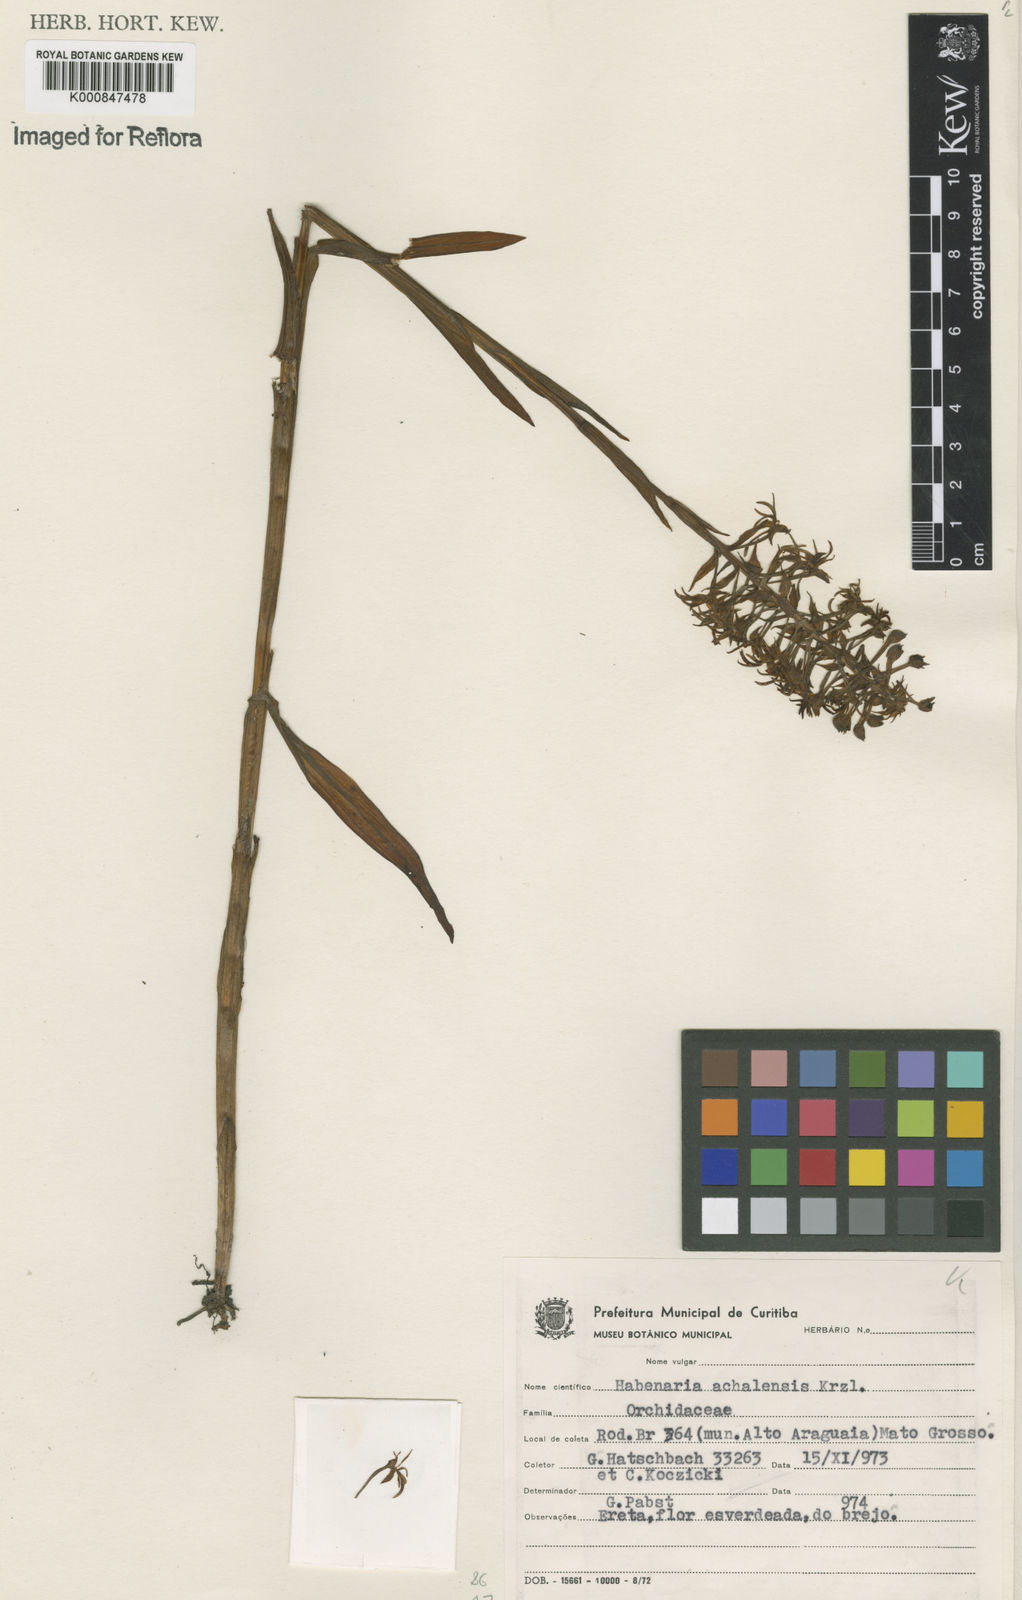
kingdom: Plantae
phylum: Tracheophyta
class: Liliopsida
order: Asparagales
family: Orchidaceae
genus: Habenaria
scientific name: Habenaria achalensis
